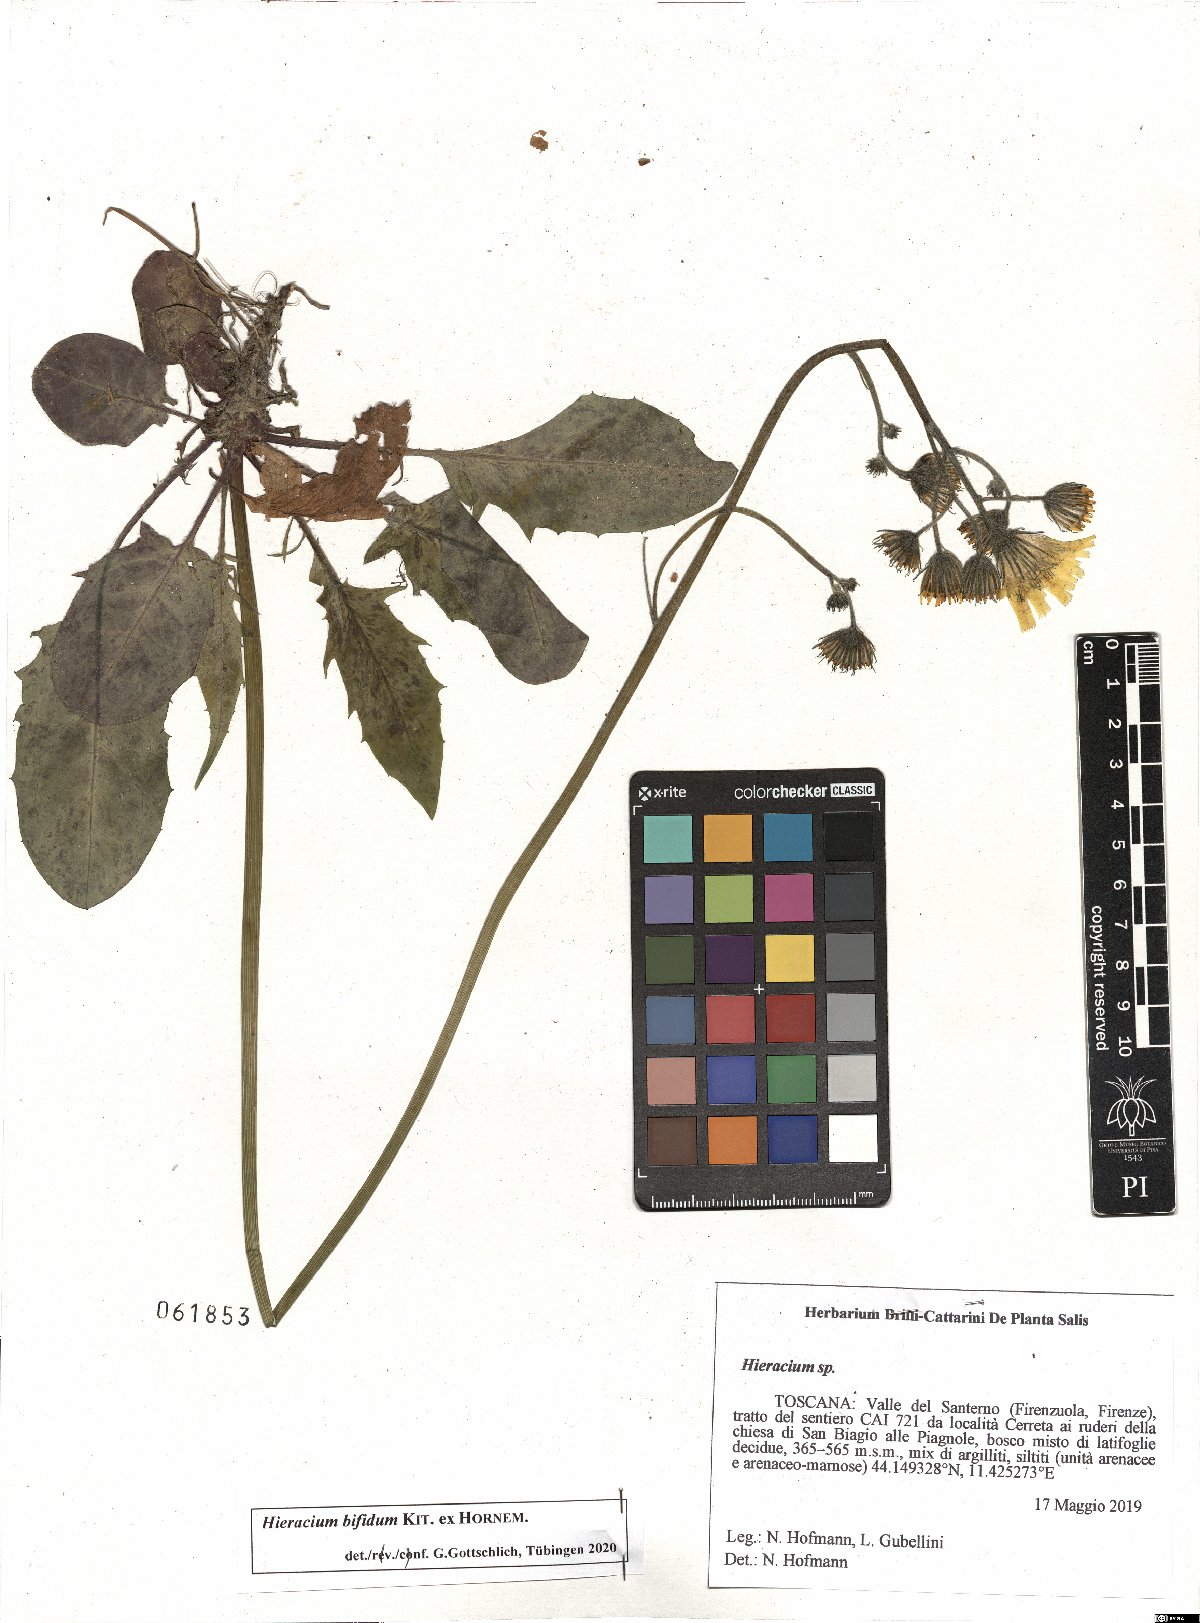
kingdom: Plantae
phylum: Tracheophyta
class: Magnoliopsida
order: Asterales
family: Asteraceae
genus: Hieracium
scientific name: Hieracium bifidum
